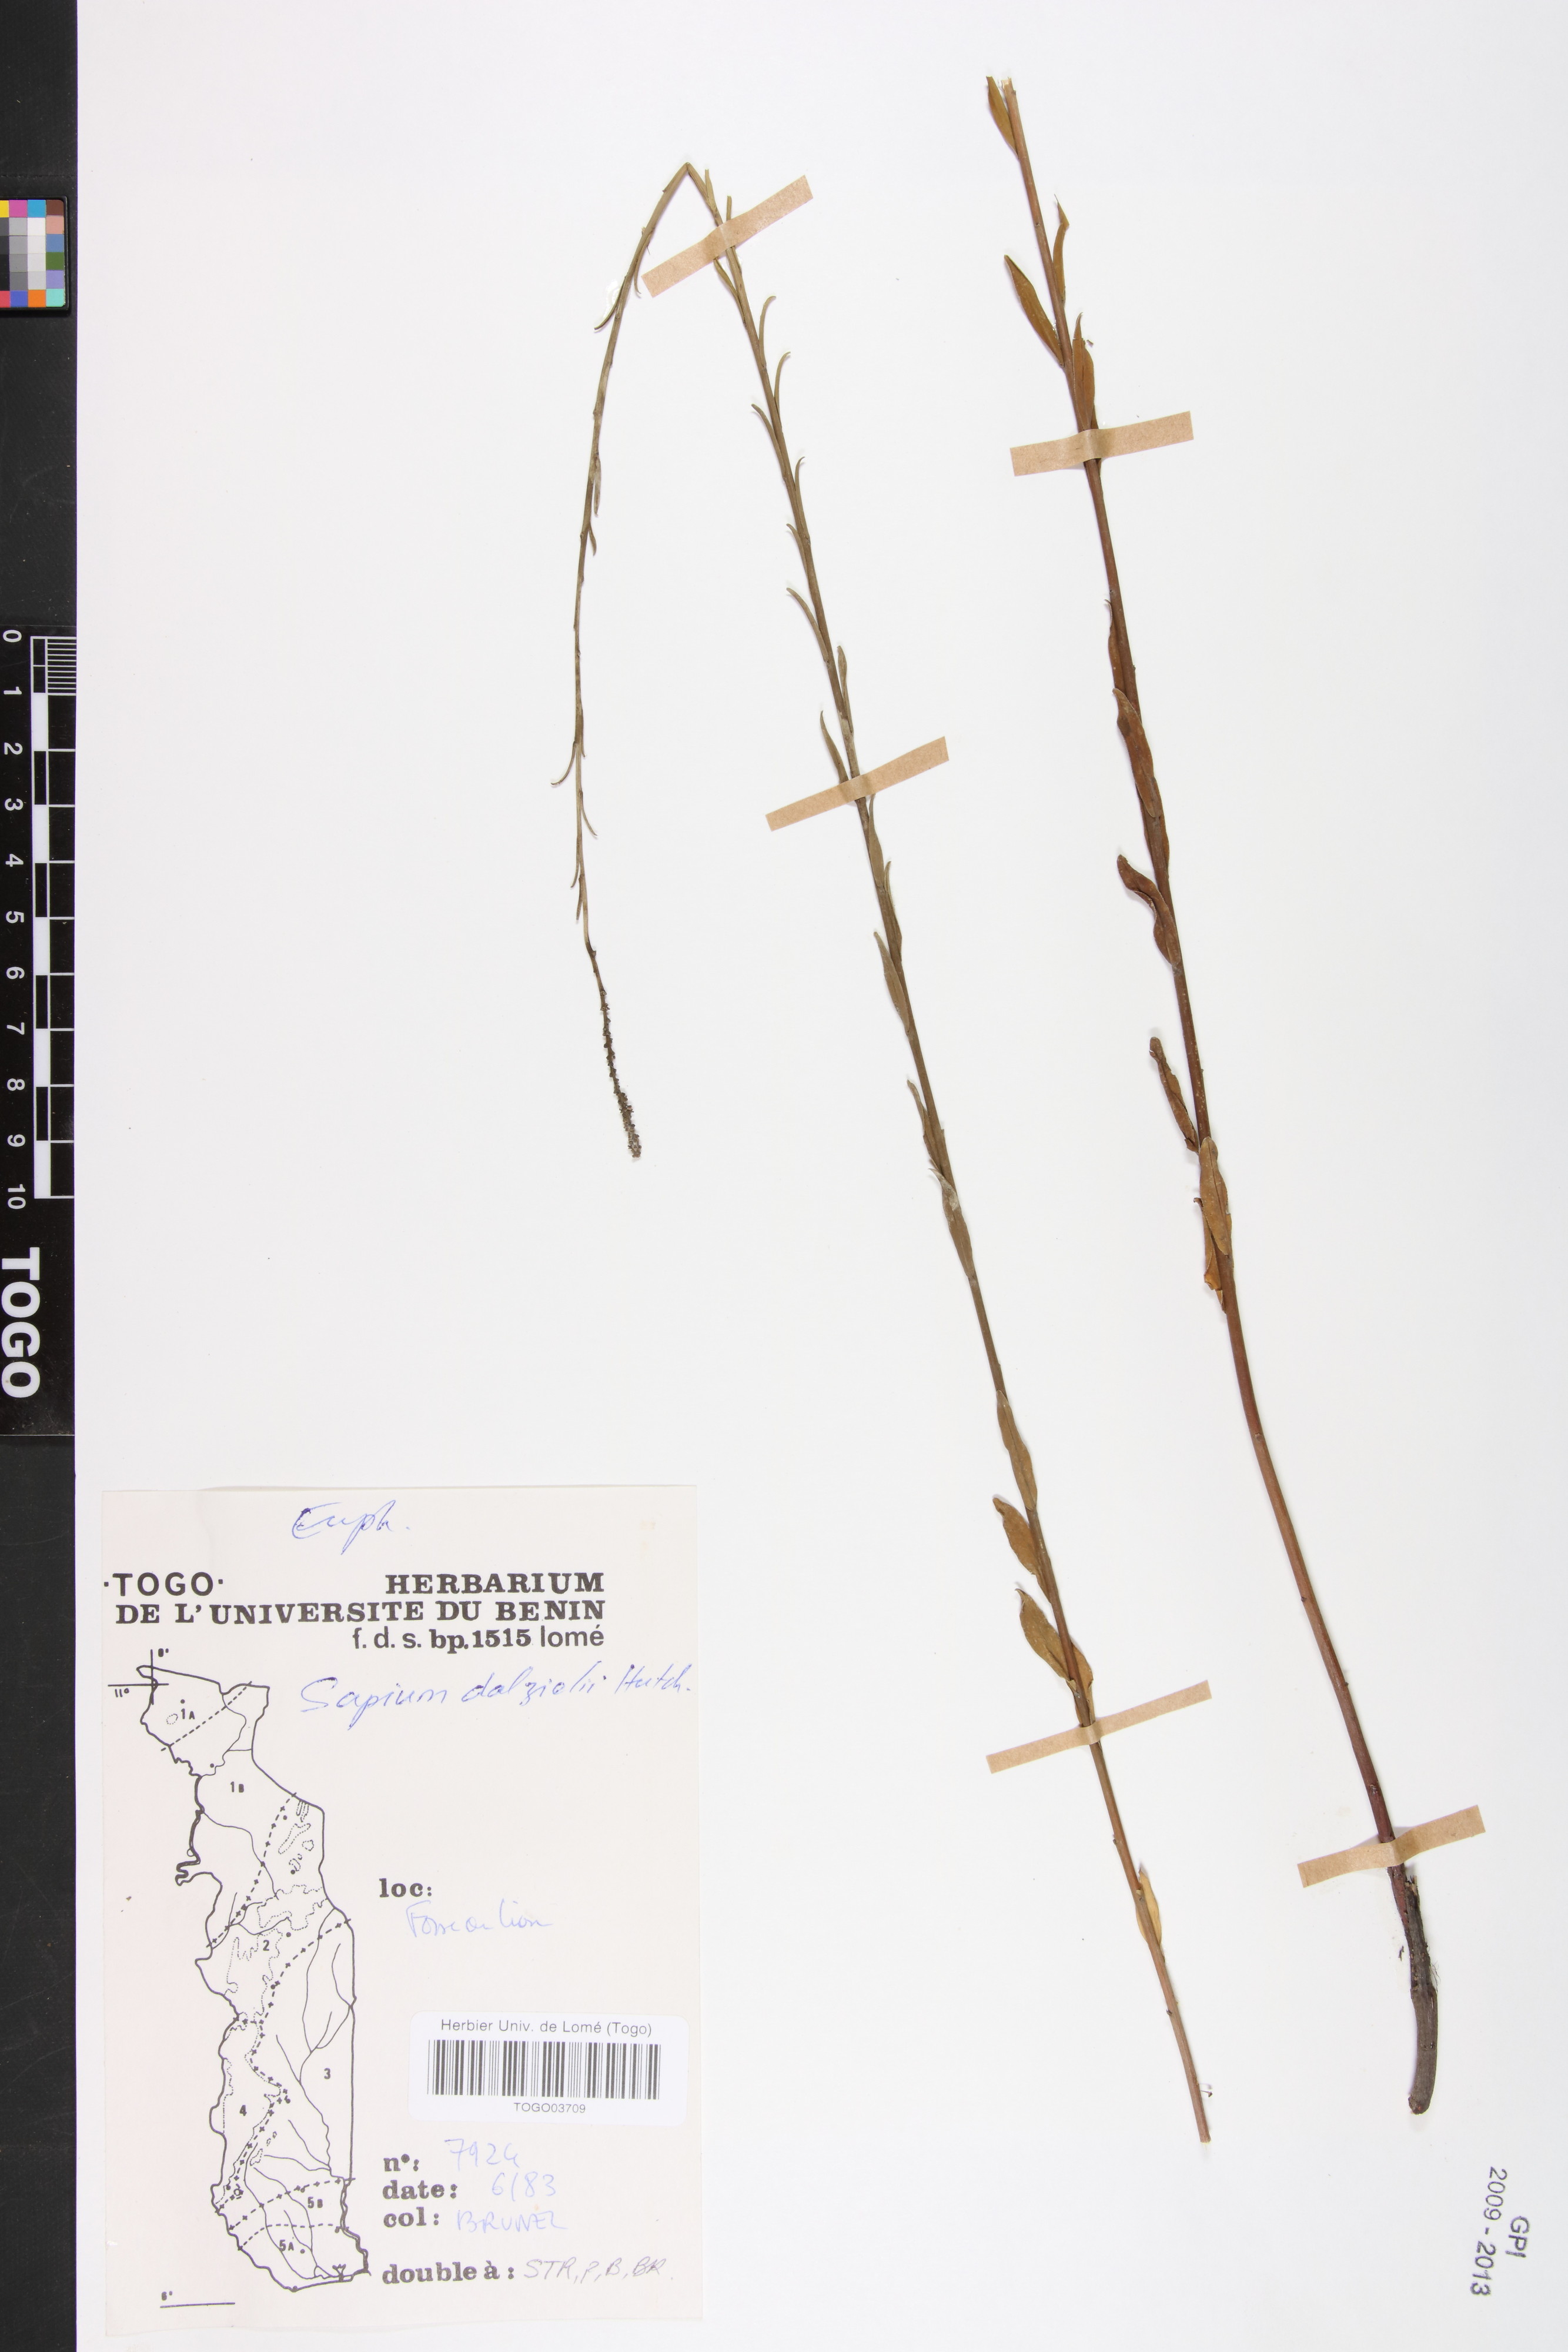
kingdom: Plantae
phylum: Tracheophyta
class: Magnoliopsida
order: Malpighiales
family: Euphorbiaceae
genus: Microstachys
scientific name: Microstachys dalzielii
